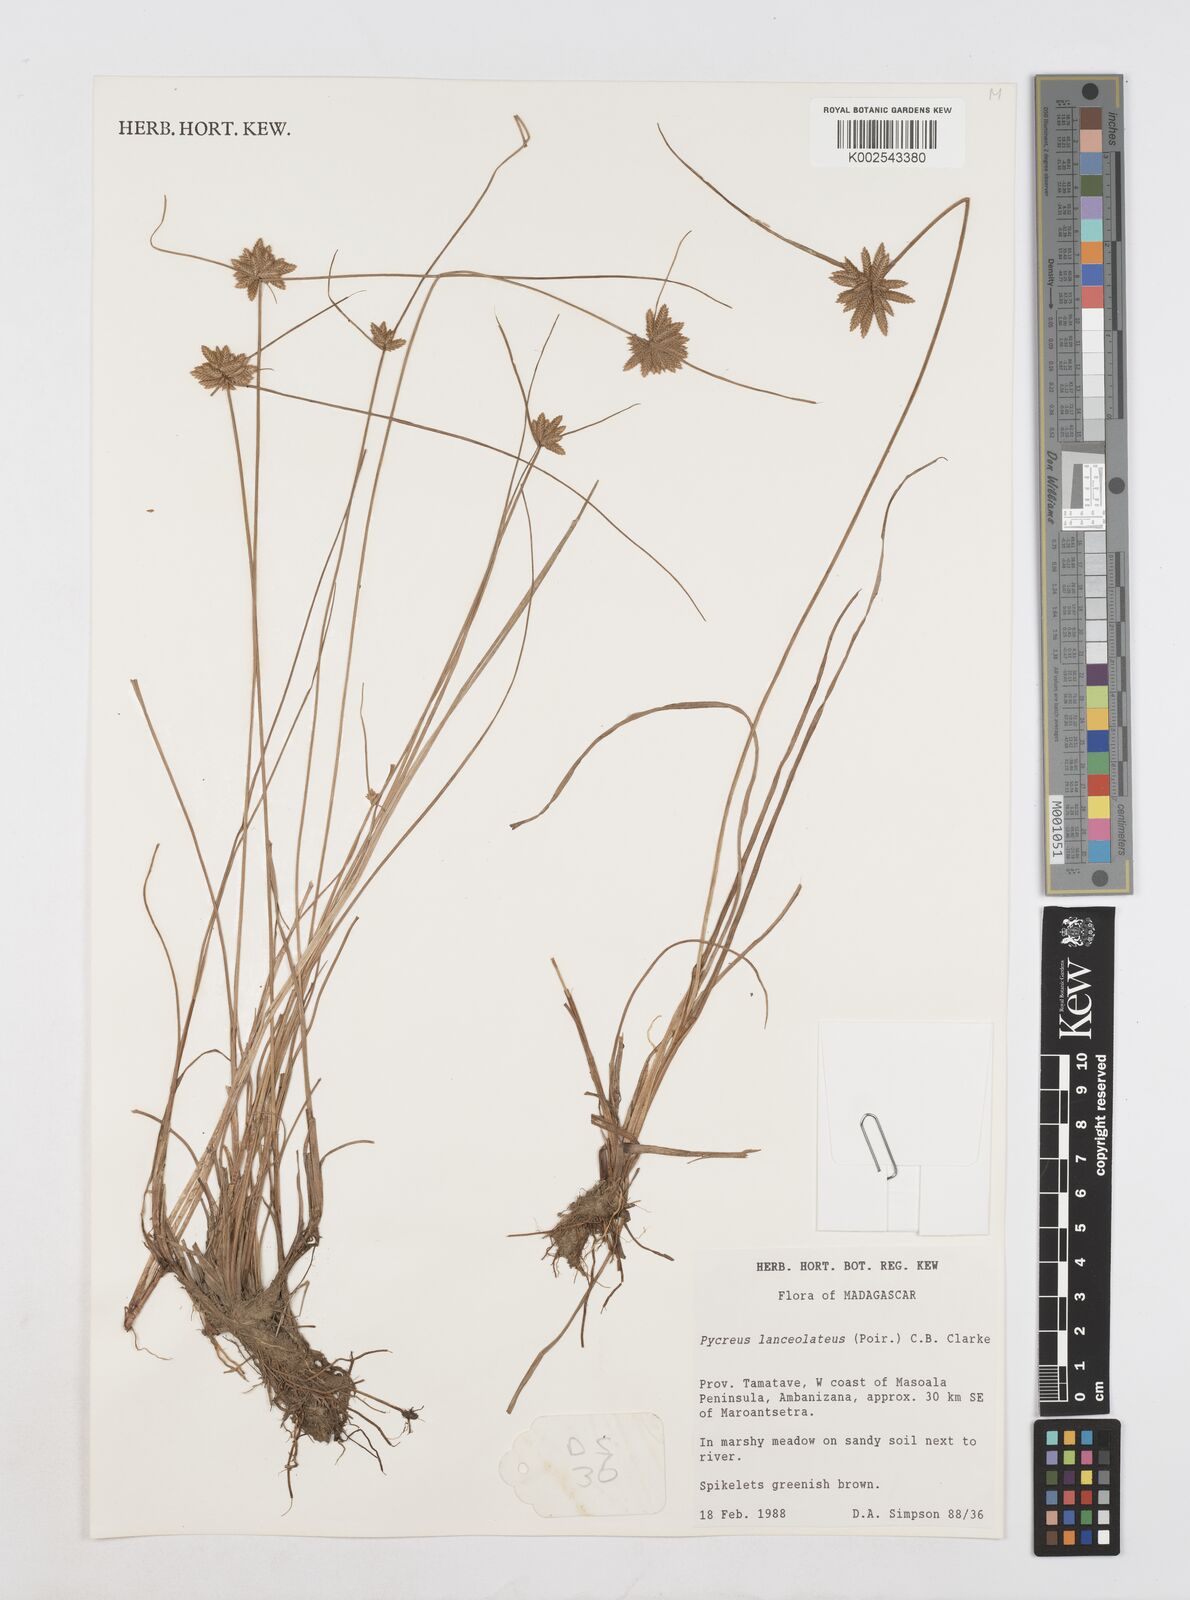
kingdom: Plantae
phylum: Tracheophyta
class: Liliopsida
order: Poales
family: Cyperaceae
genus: Cyperus
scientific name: Cyperus
